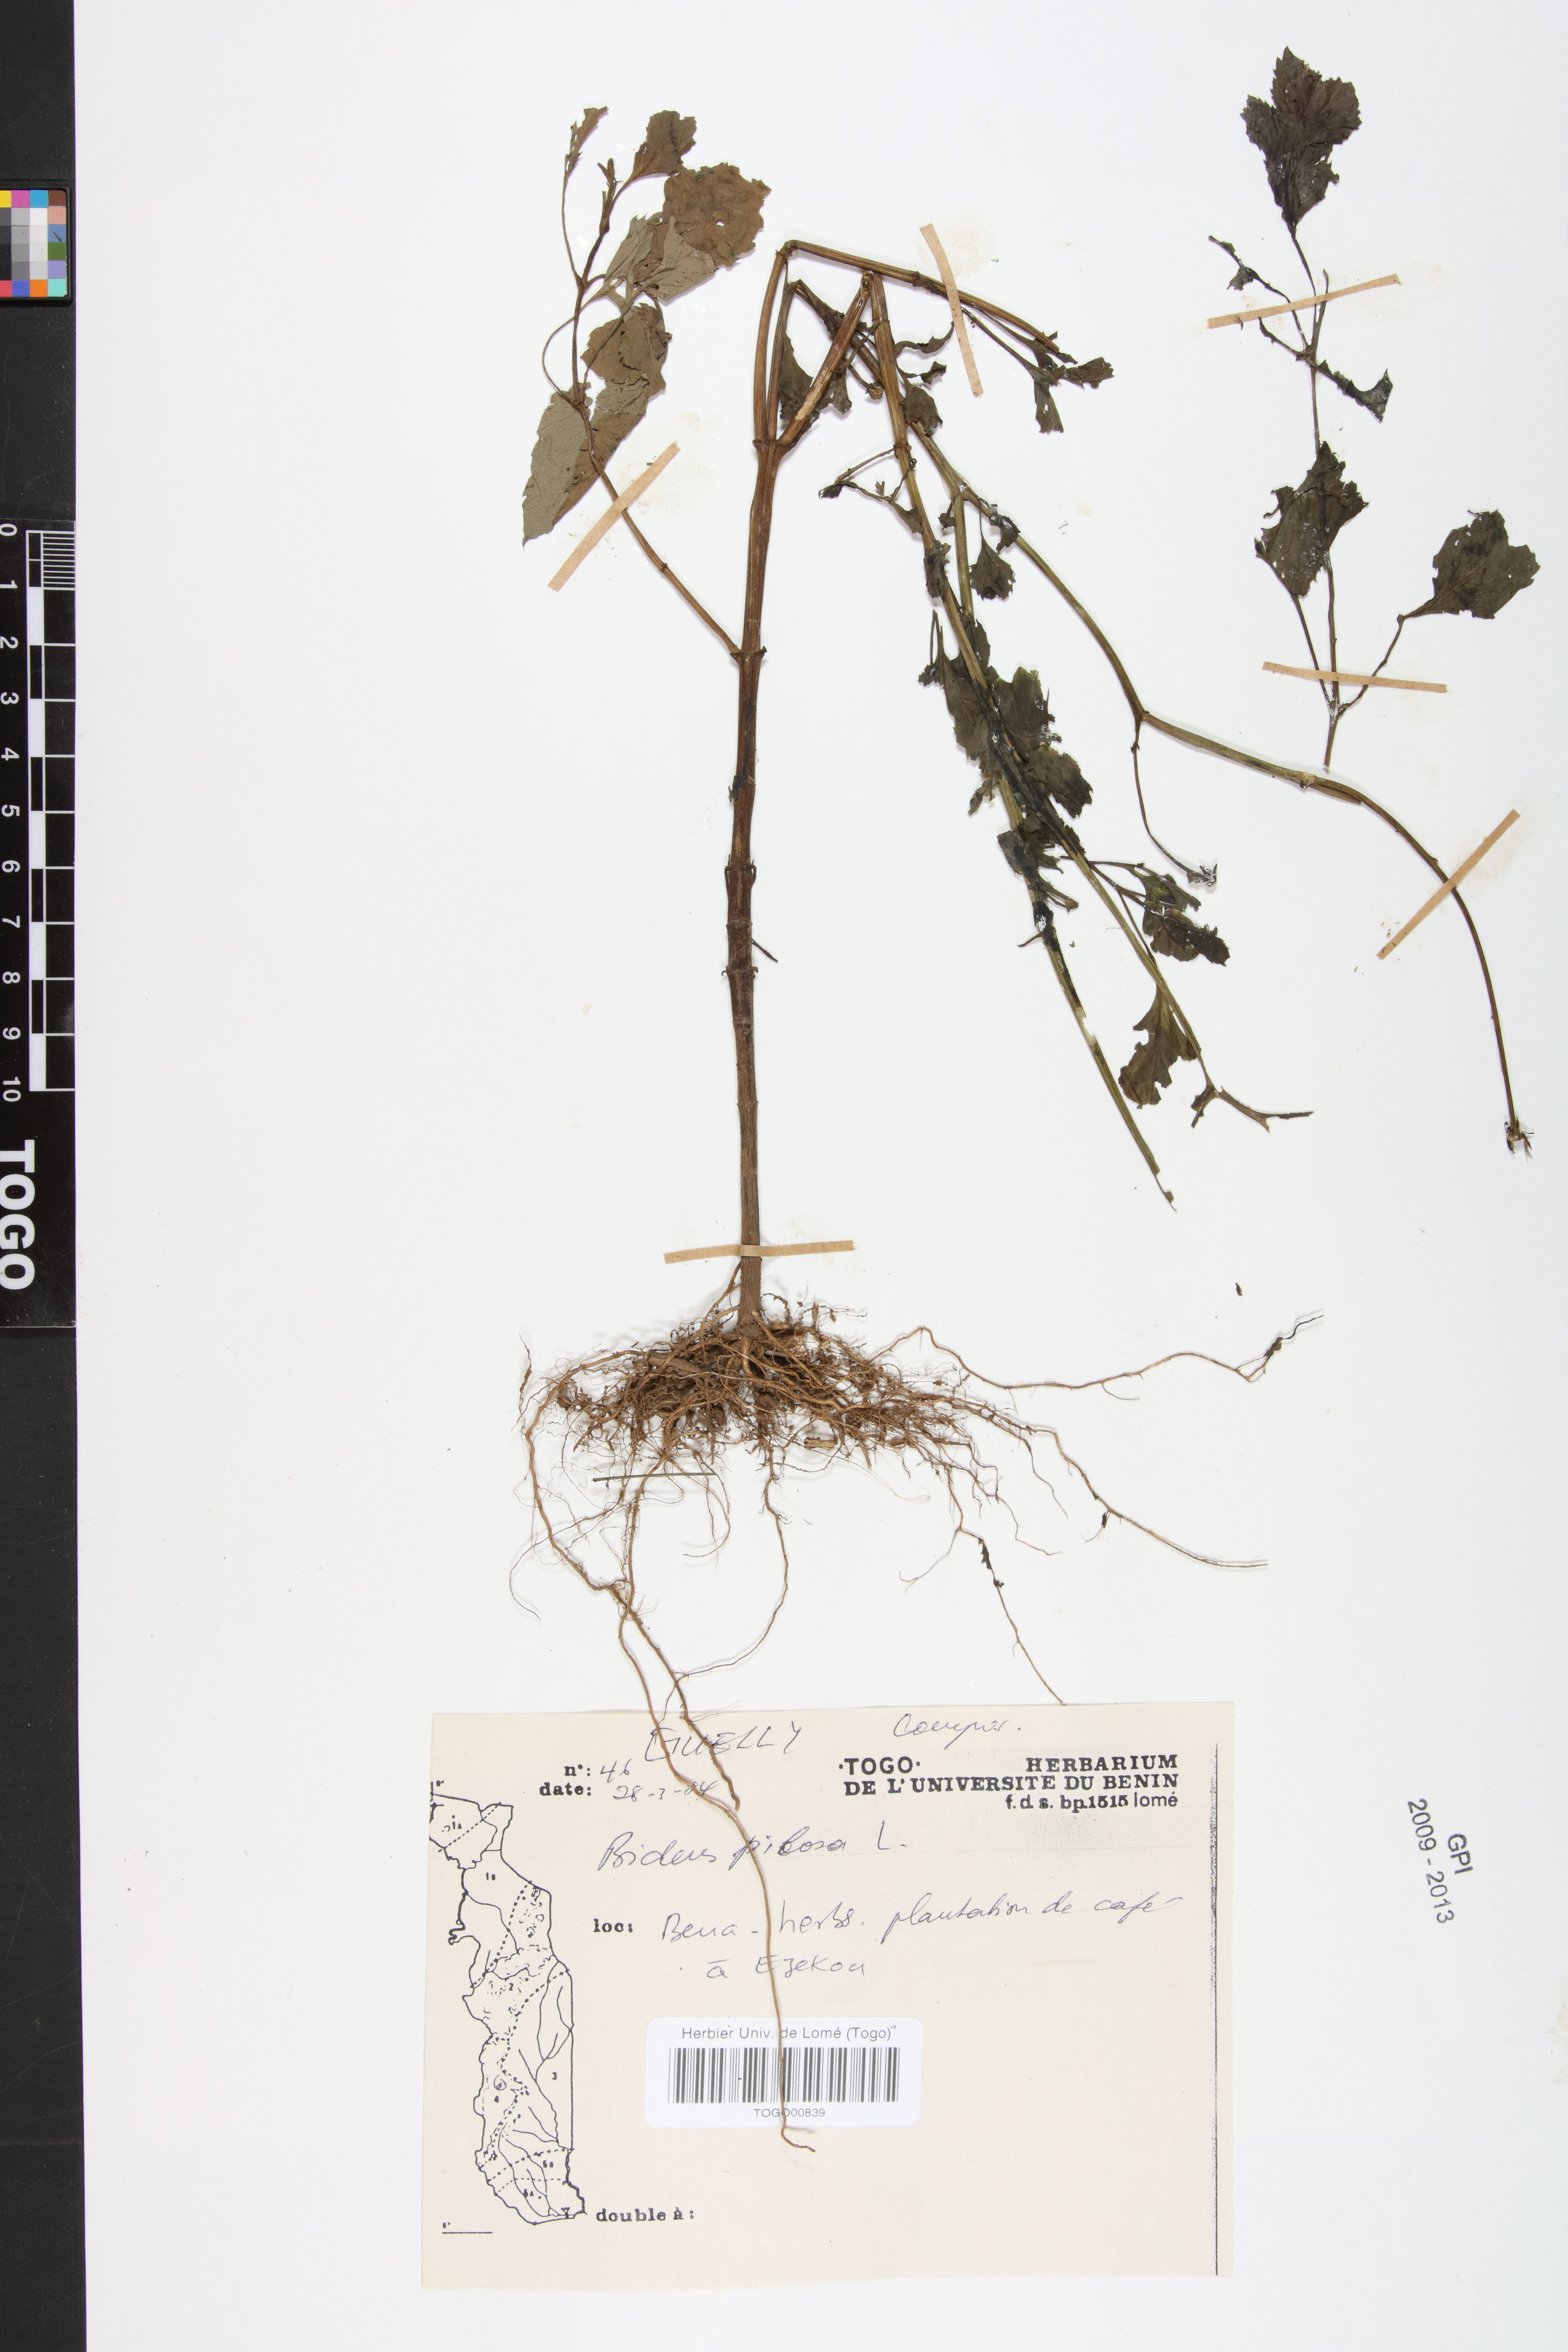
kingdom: Plantae
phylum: Tracheophyta
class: Magnoliopsida
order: Asterales
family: Asteraceae
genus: Bidens
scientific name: Bidens pilosa
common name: Black-jack
